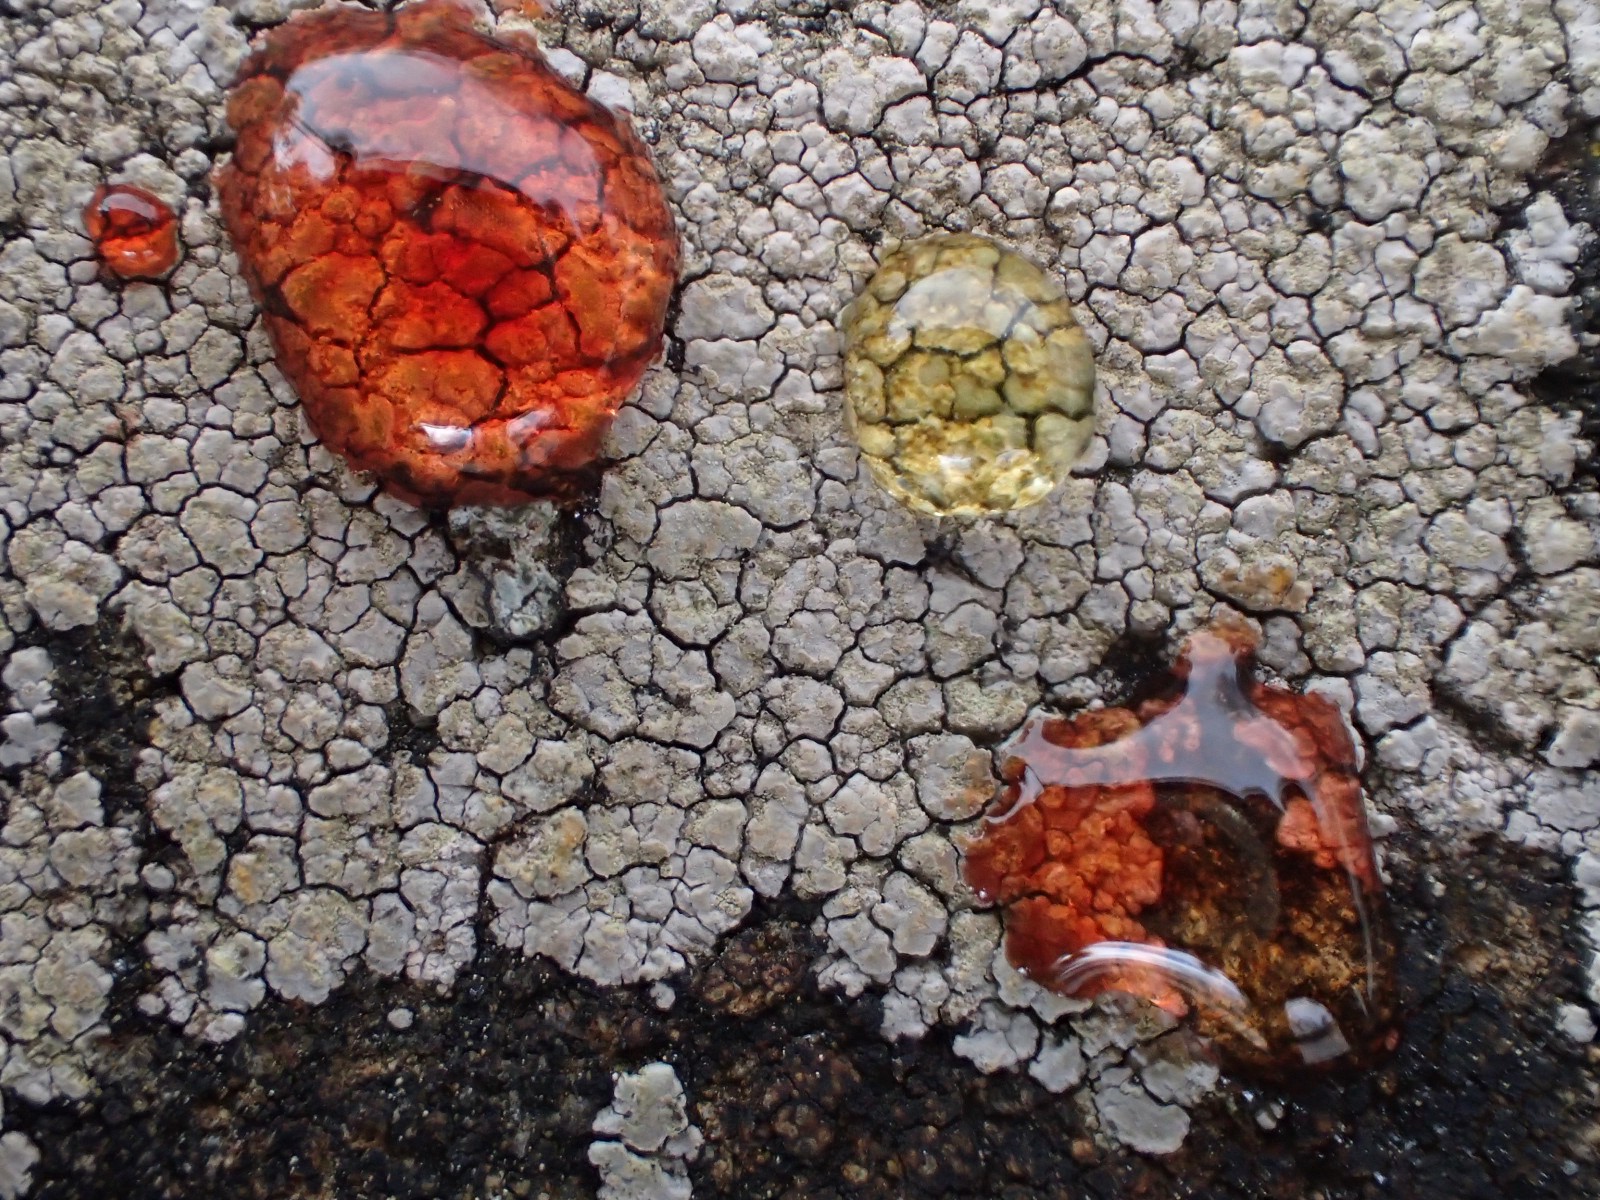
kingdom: Fungi
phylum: Ascomycota
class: Lecanoromycetes
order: Baeomycetales
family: Trapeliaceae
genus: Kleopowiella
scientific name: Kleopowiella placodioides
